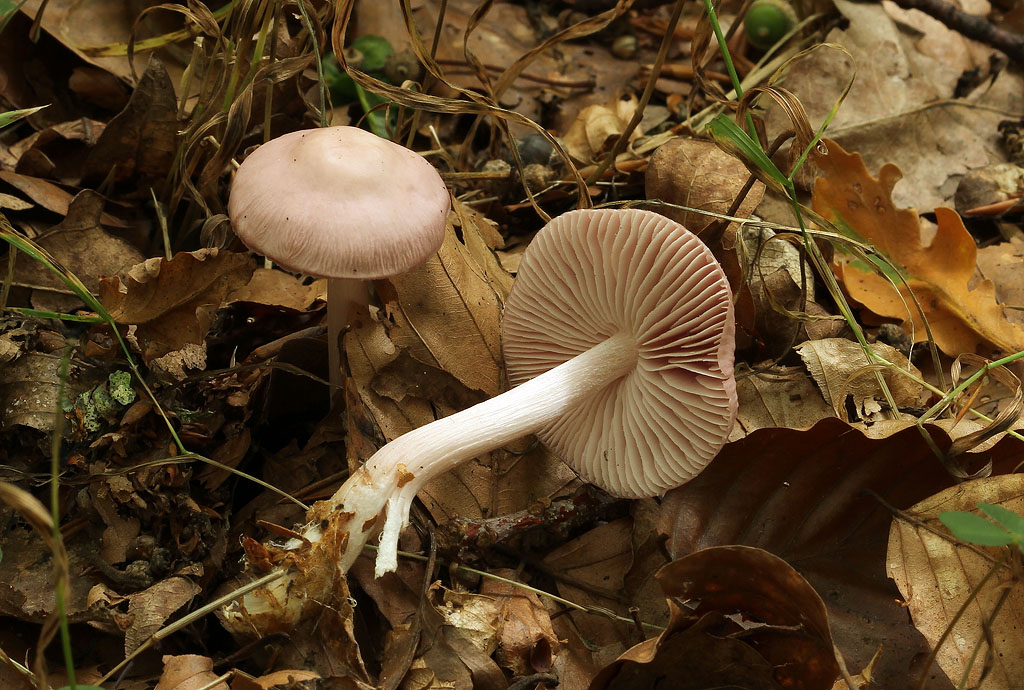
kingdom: Fungi
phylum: Basidiomycota
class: Agaricomycetes
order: Agaricales
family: Mycenaceae
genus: Mycena
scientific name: Mycena rosea
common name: rosa huesvamp
